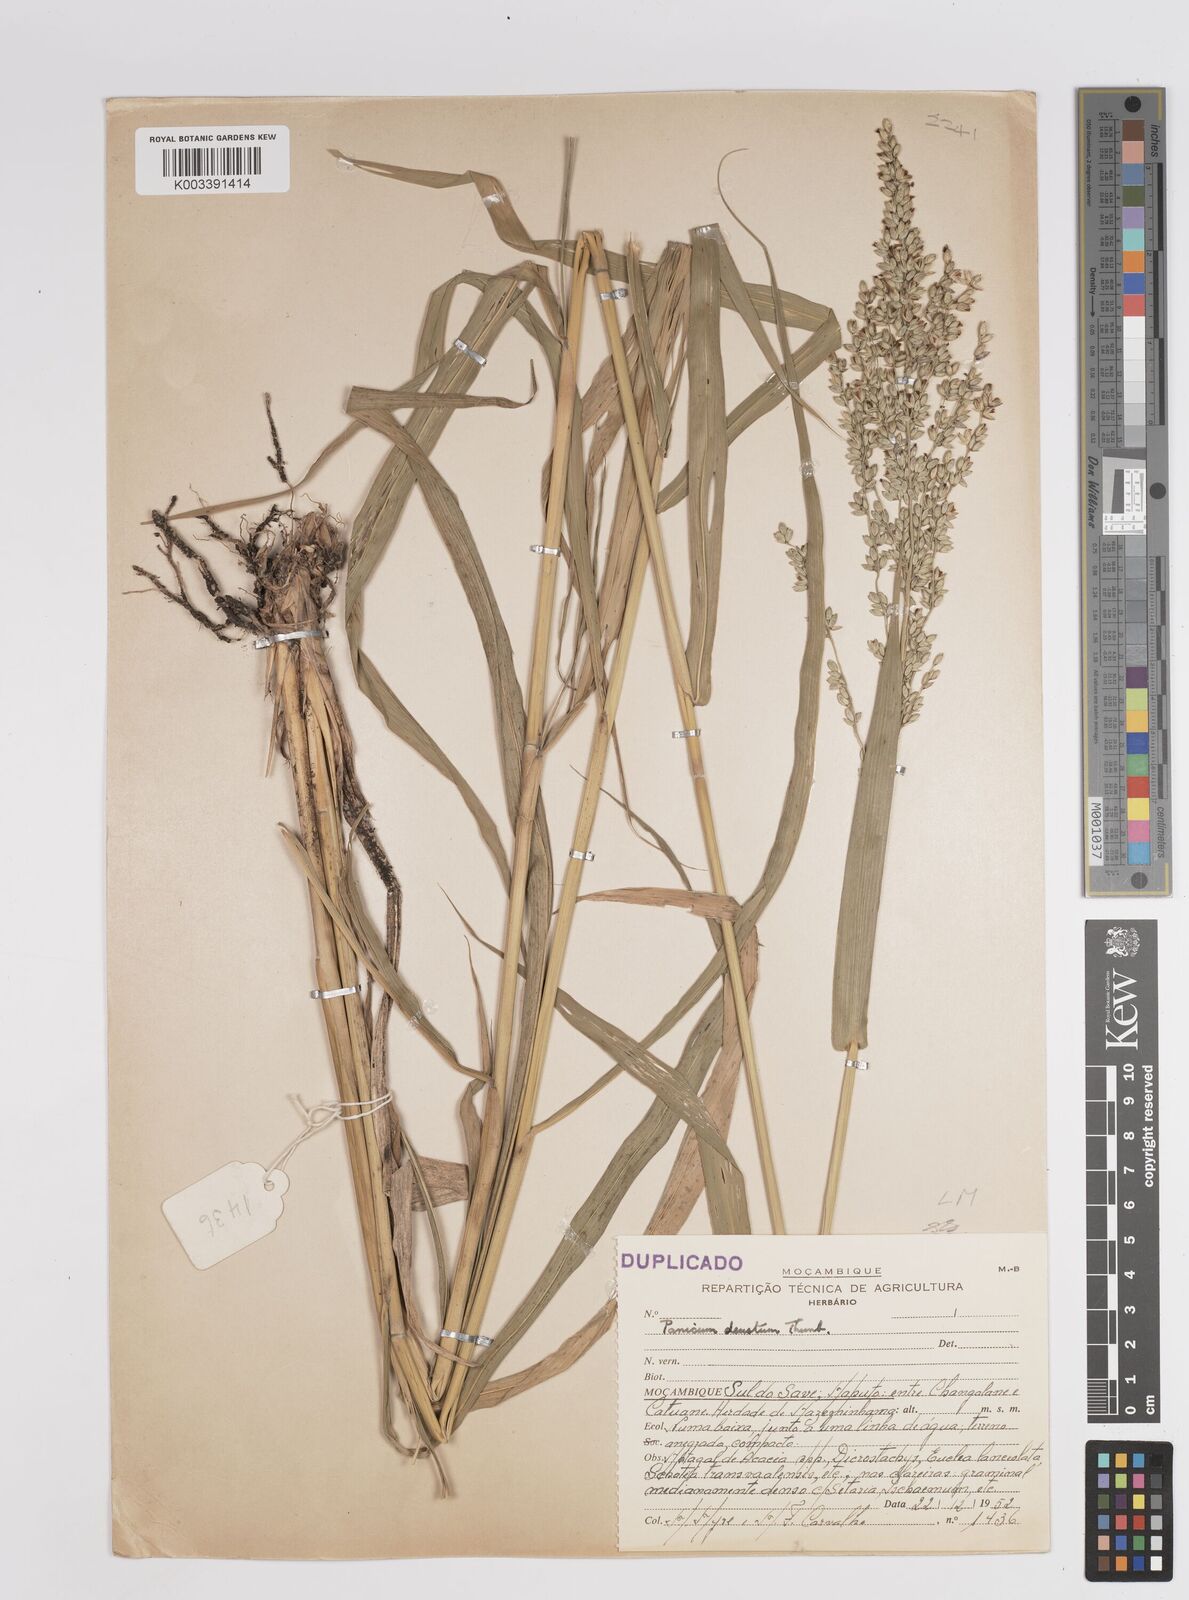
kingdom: Plantae
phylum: Tracheophyta
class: Liliopsida
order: Poales
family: Poaceae
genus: Panicum
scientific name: Panicum deustum
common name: Reed panicum
